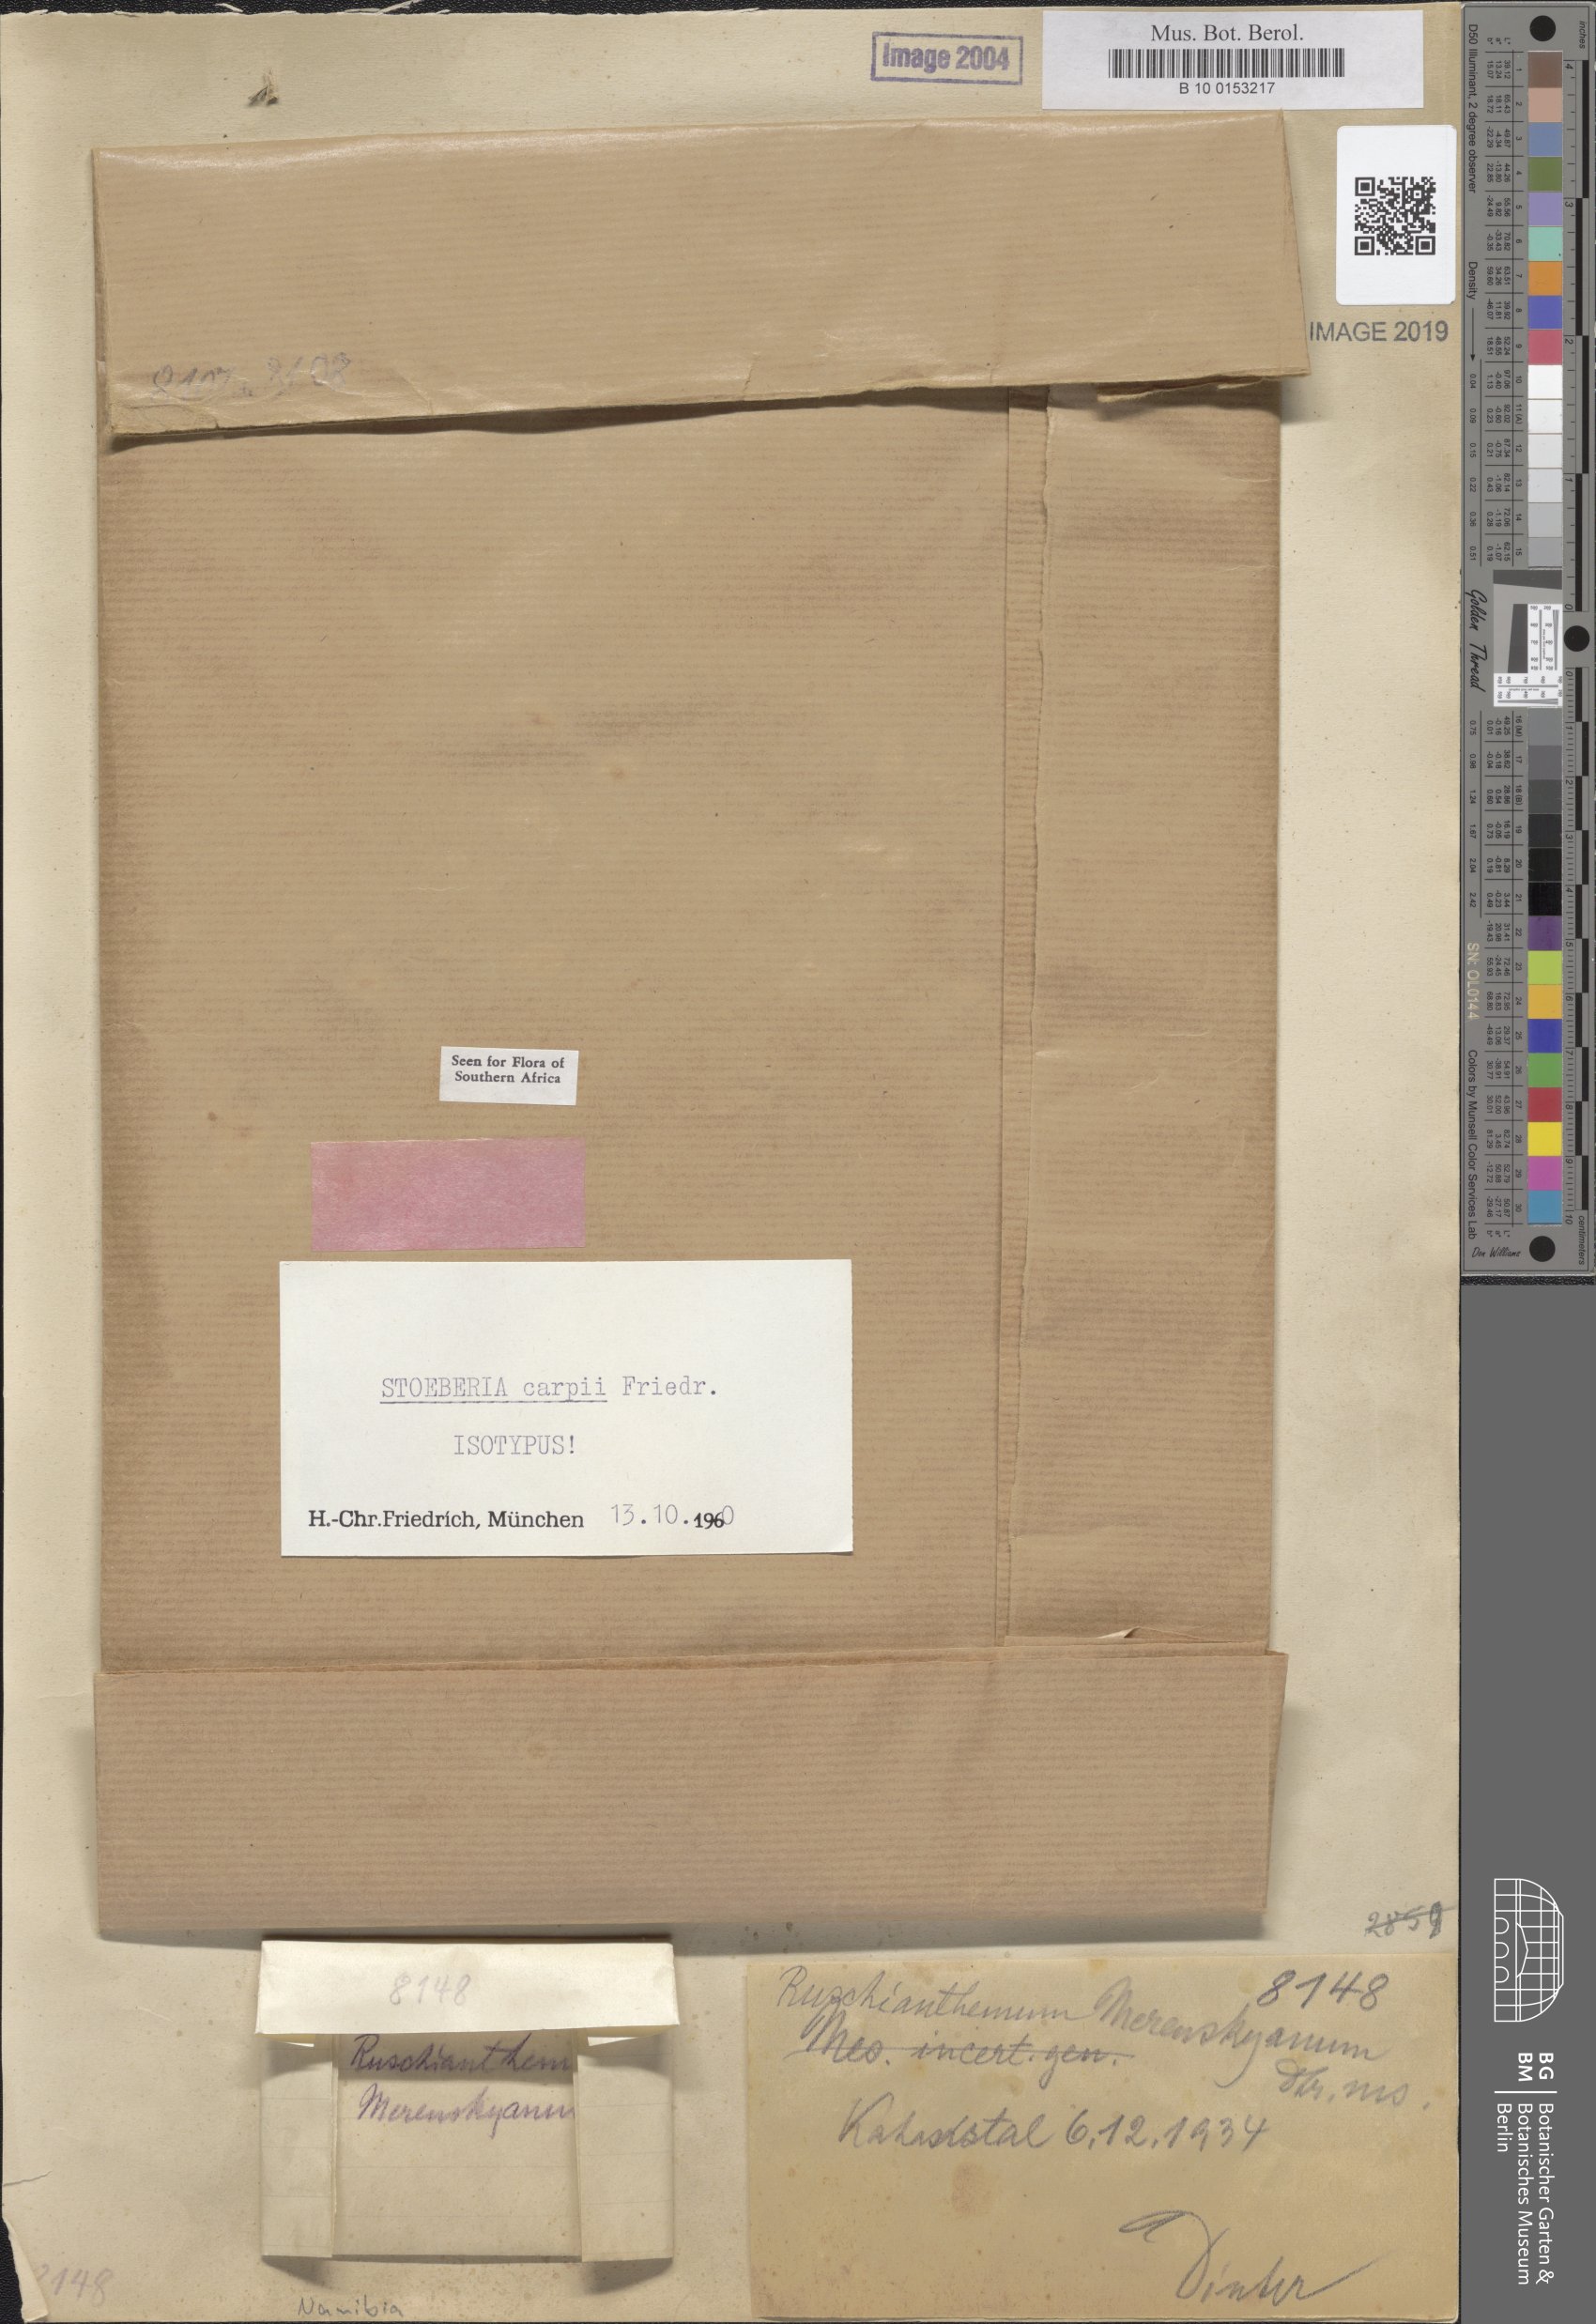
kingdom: Plantae
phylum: Tracheophyta
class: Magnoliopsida
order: Caryophyllales
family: Aizoaceae
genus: Stoeberia
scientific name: Stoeberia carpii
